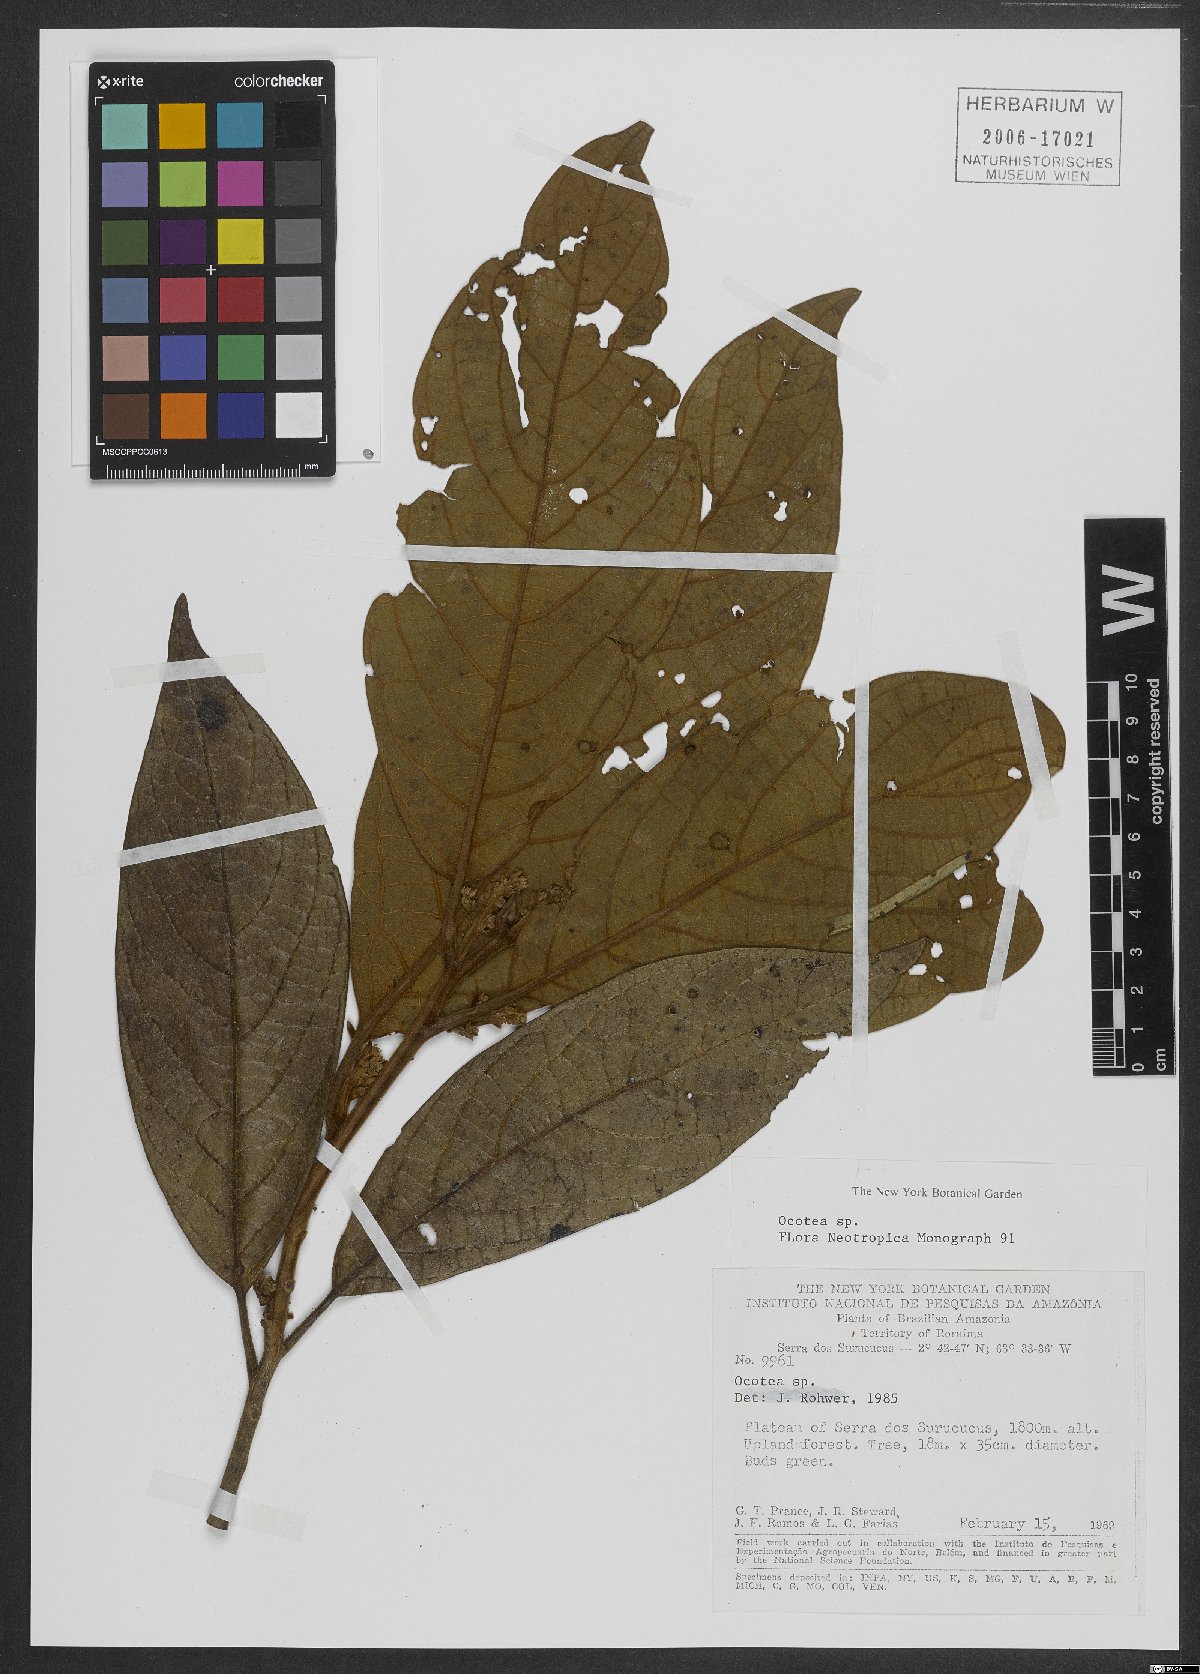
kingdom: Plantae
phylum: Tracheophyta
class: Magnoliopsida
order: Laurales
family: Lauraceae
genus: Ocotea
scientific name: Ocotea
